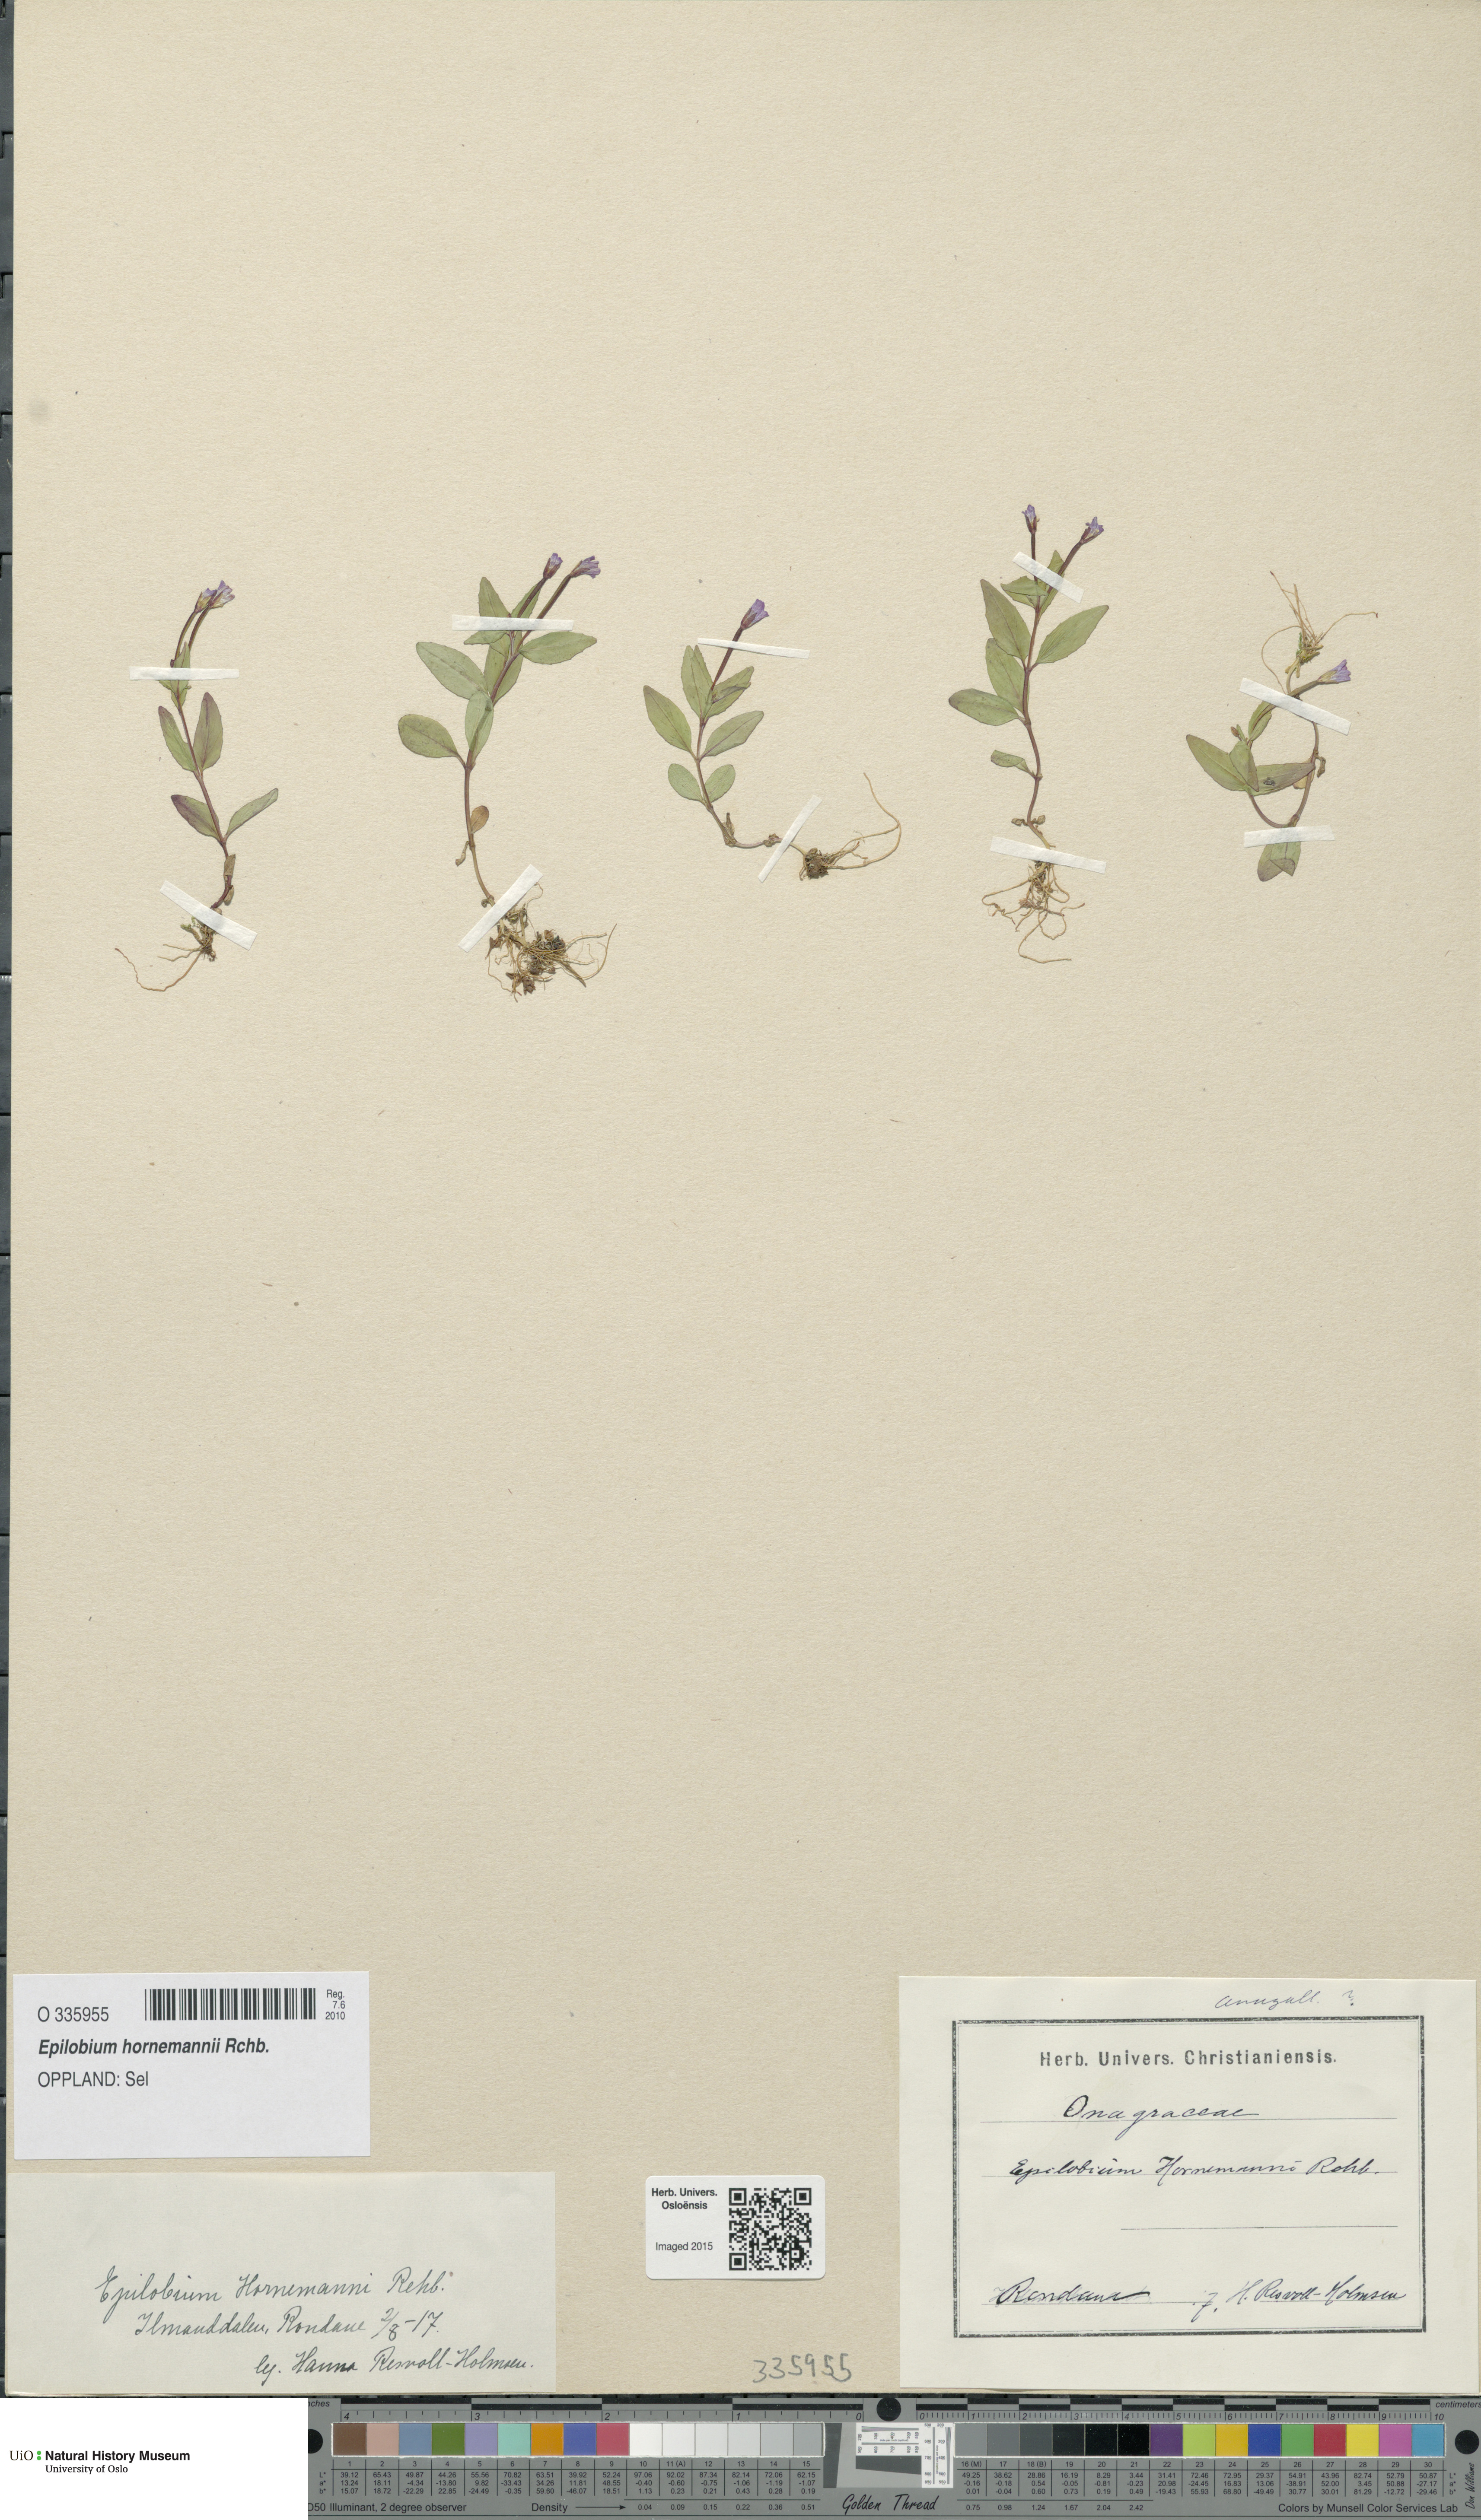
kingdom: Plantae
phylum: Tracheophyta
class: Magnoliopsida
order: Myrtales
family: Onagraceae
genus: Epilobium
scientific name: Epilobium hornemannii
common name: Hornemann's willowherb
